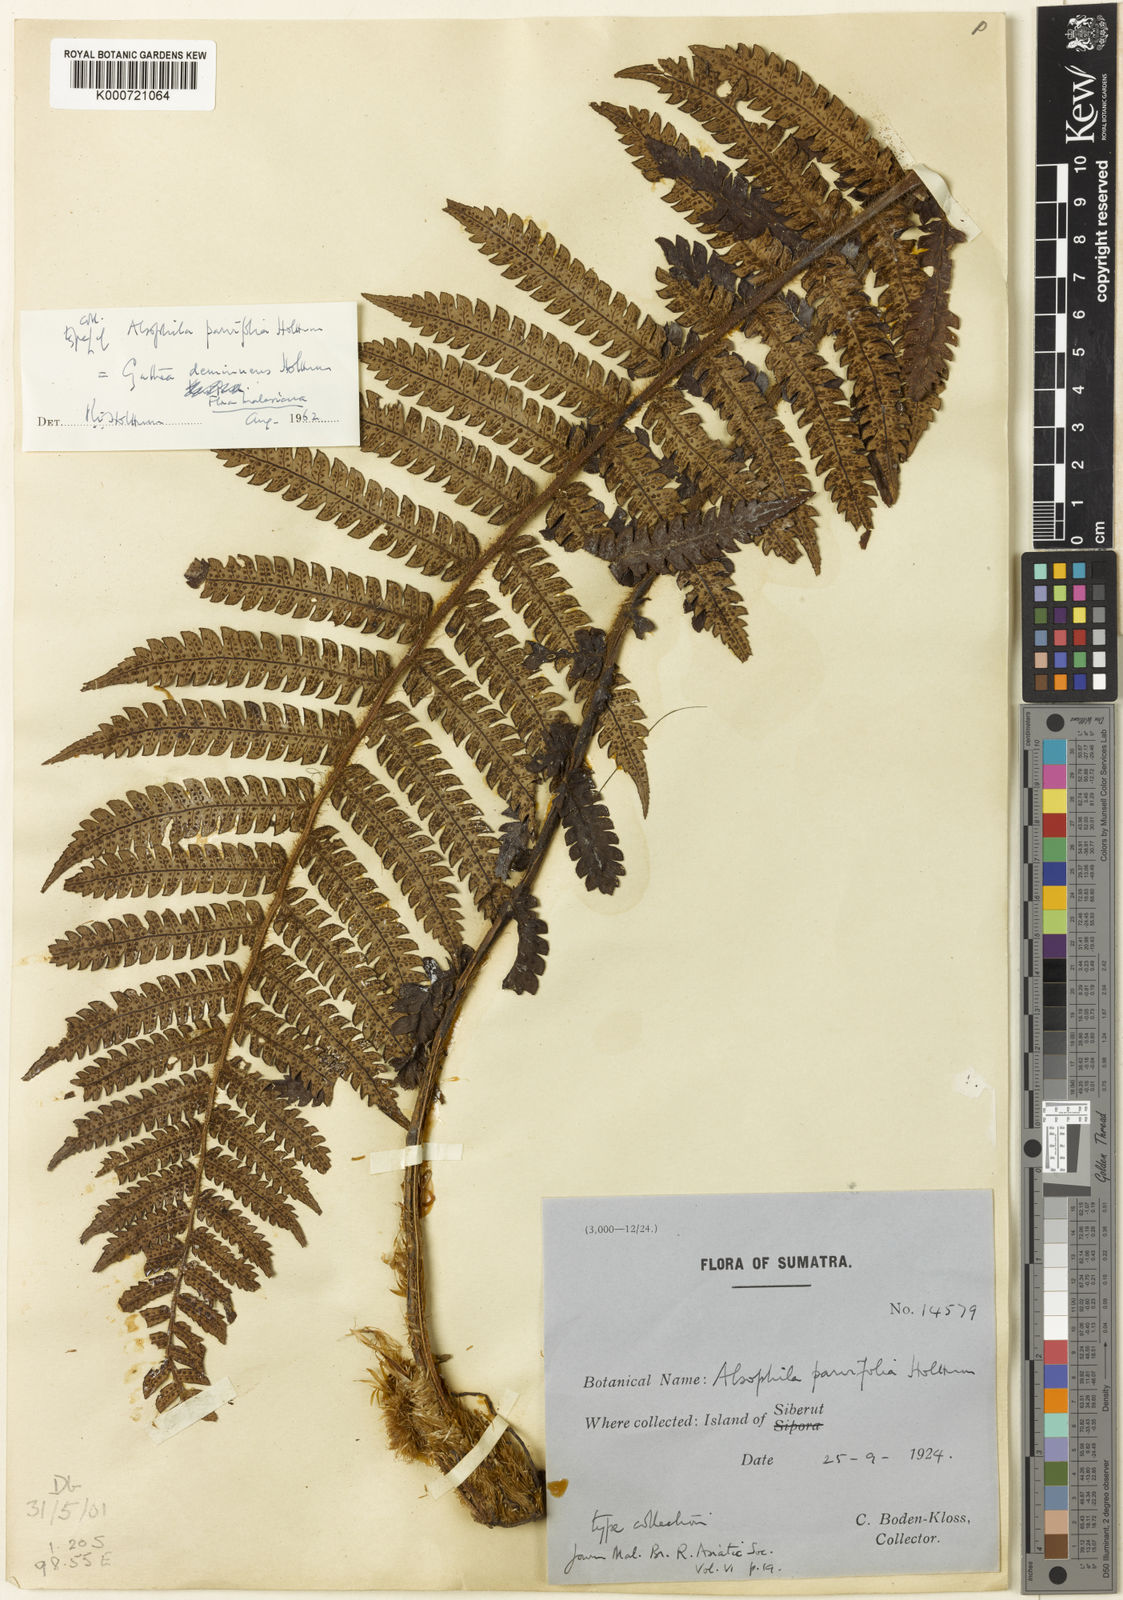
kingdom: Plantae
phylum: Tracheophyta
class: Polypodiopsida
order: Cyatheales
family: Cyatheaceae
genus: Sphaeropteris
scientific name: Sphaeropteris parvifolia
